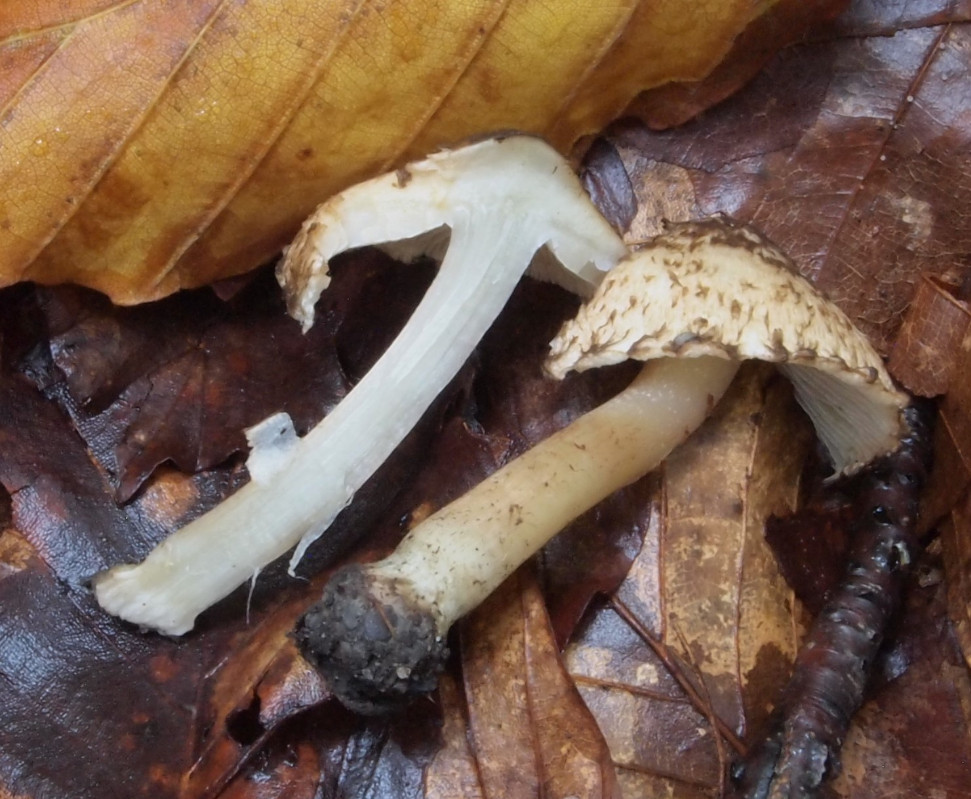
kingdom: Fungi
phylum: Basidiomycota
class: Agaricomycetes
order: Agaricales
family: Inocybaceae
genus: Inocybe
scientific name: Inocybe erinaceomorpha
